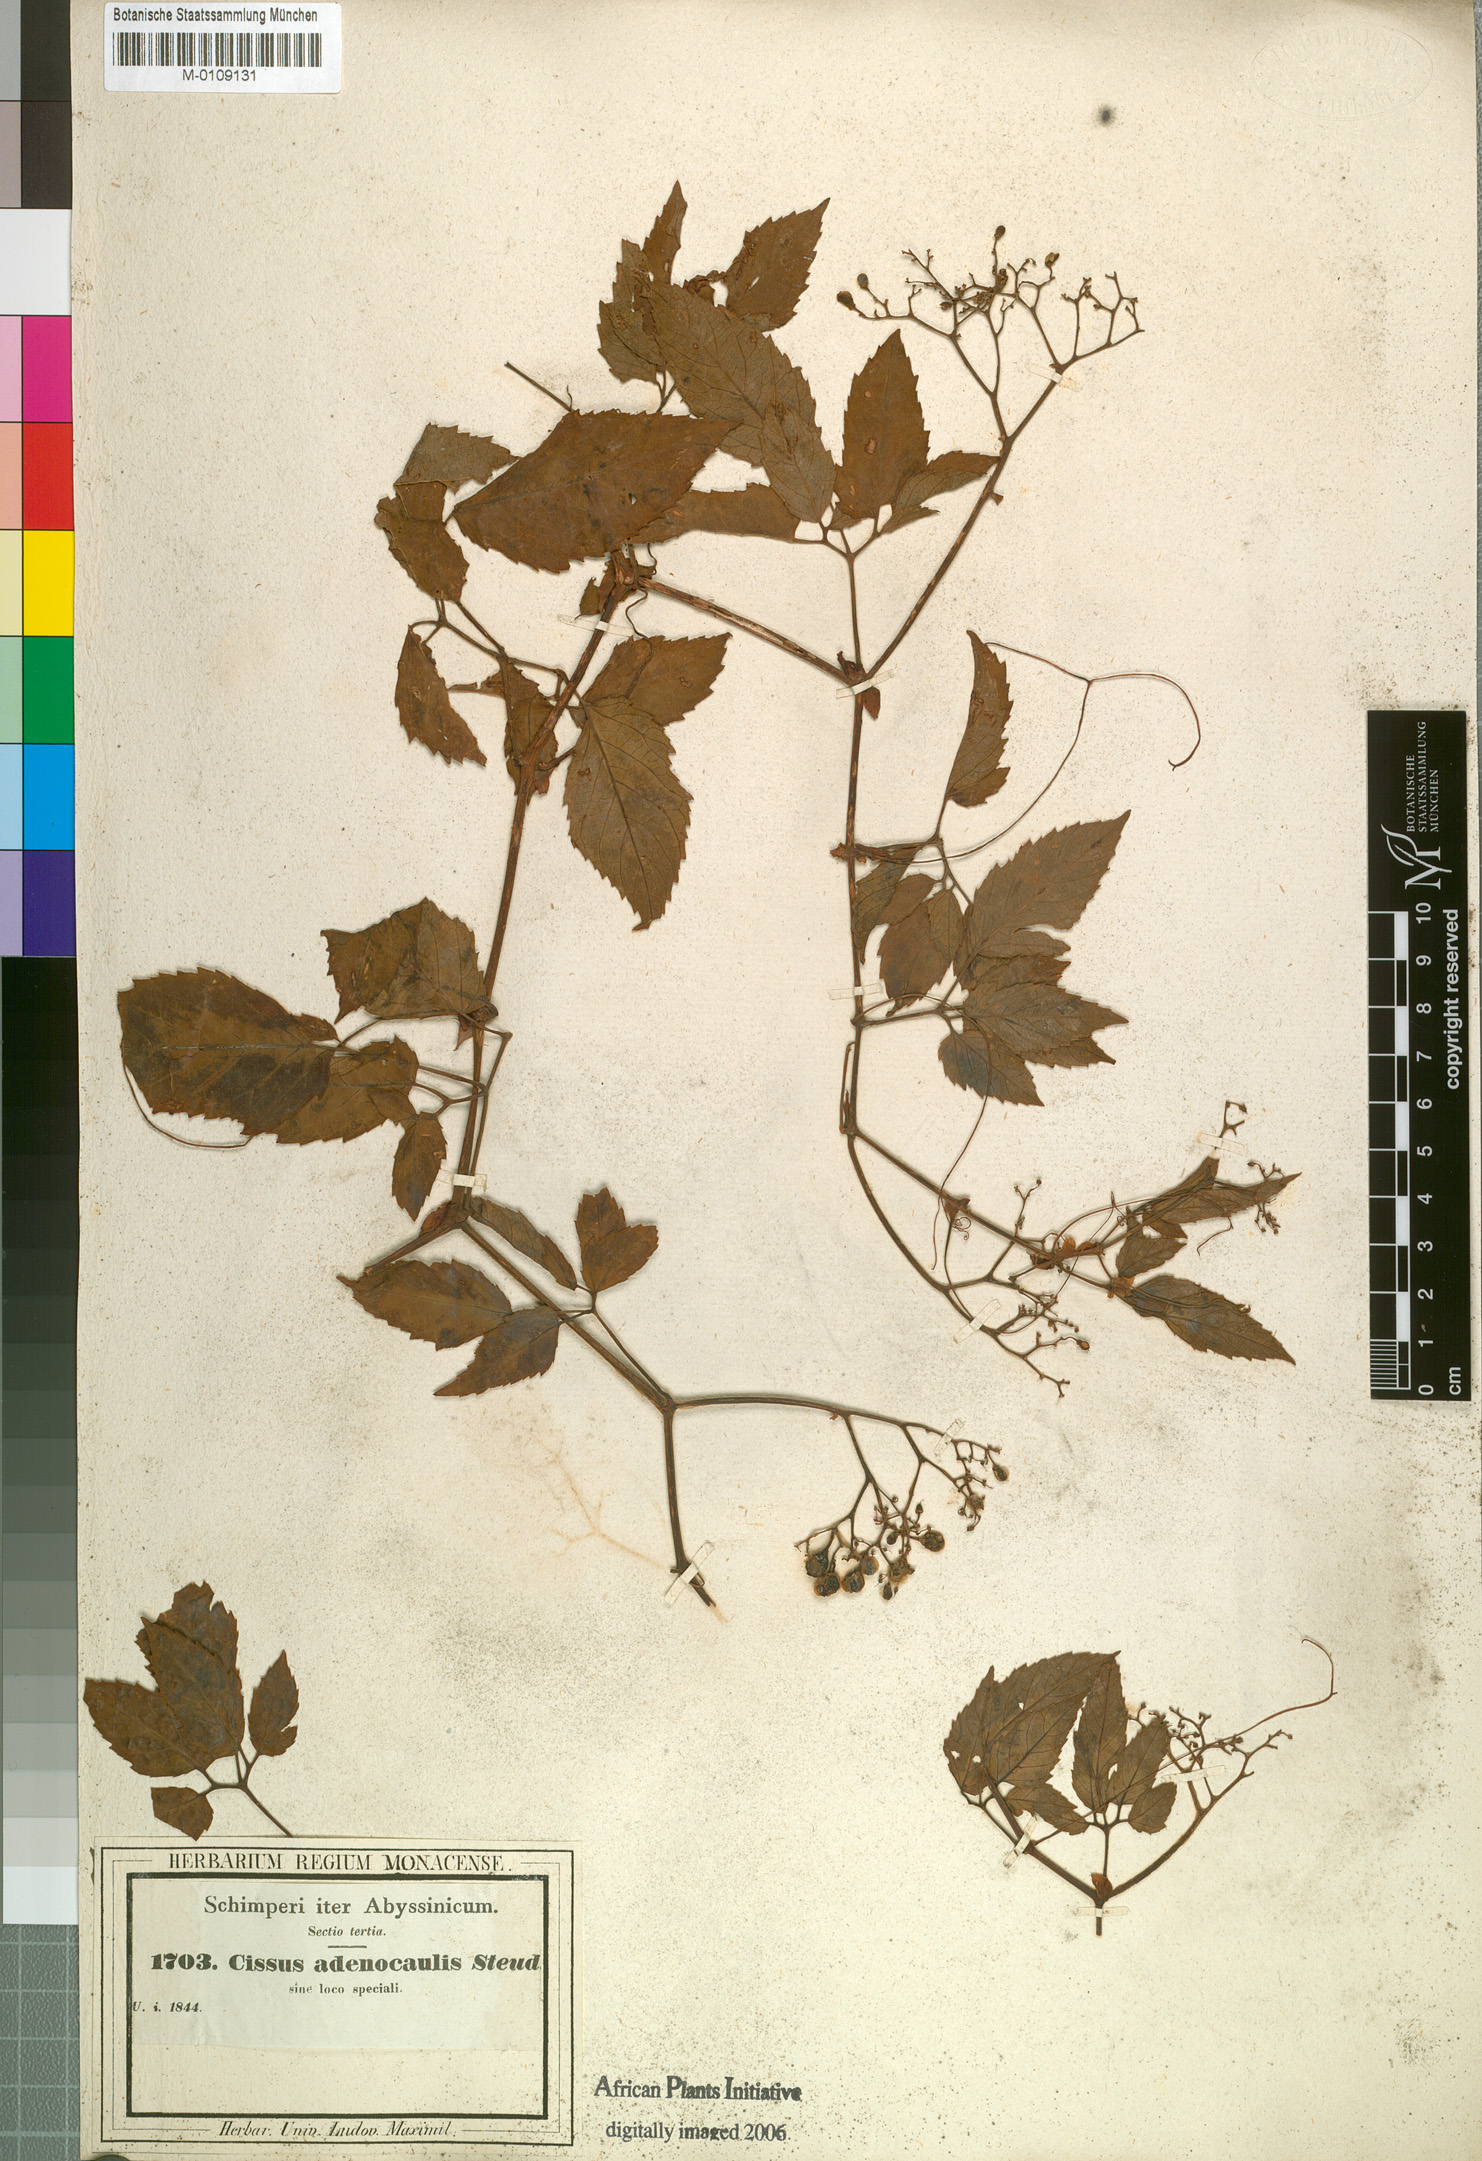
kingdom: Plantae
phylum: Tracheophyta
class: Magnoliopsida
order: Vitales
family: Vitaceae
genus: Cyphostemma
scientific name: Cyphostemma adenocaule
